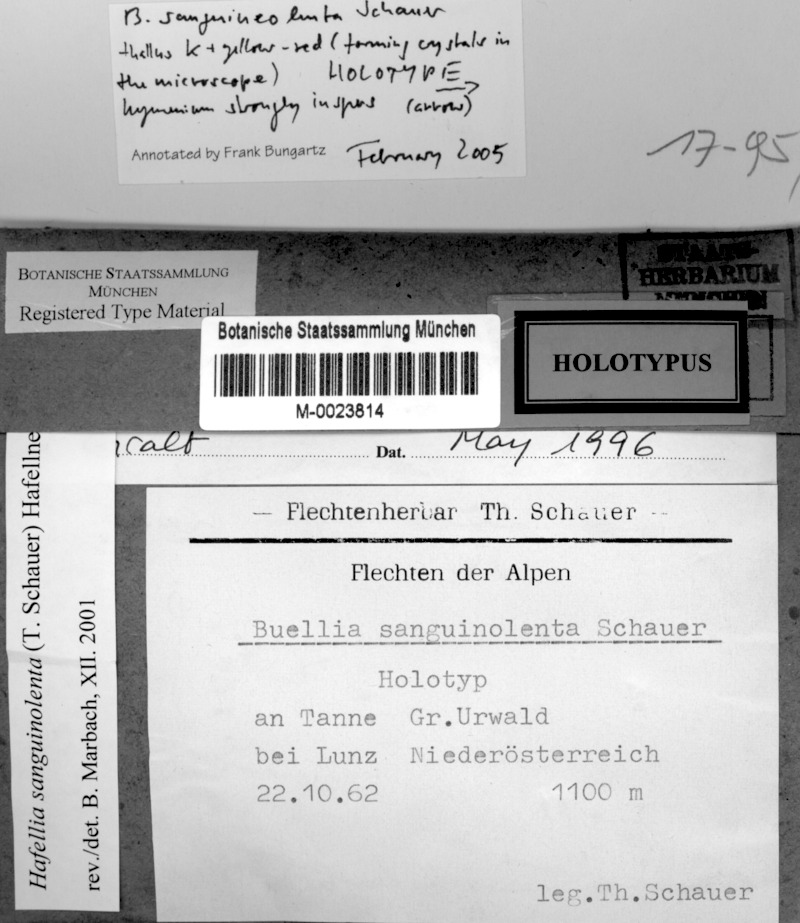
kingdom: Fungi
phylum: Ascomycota
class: Lecanoromycetes
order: Caliciales
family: Caliciaceae
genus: Buellia
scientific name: Buellia sanguinolenta
